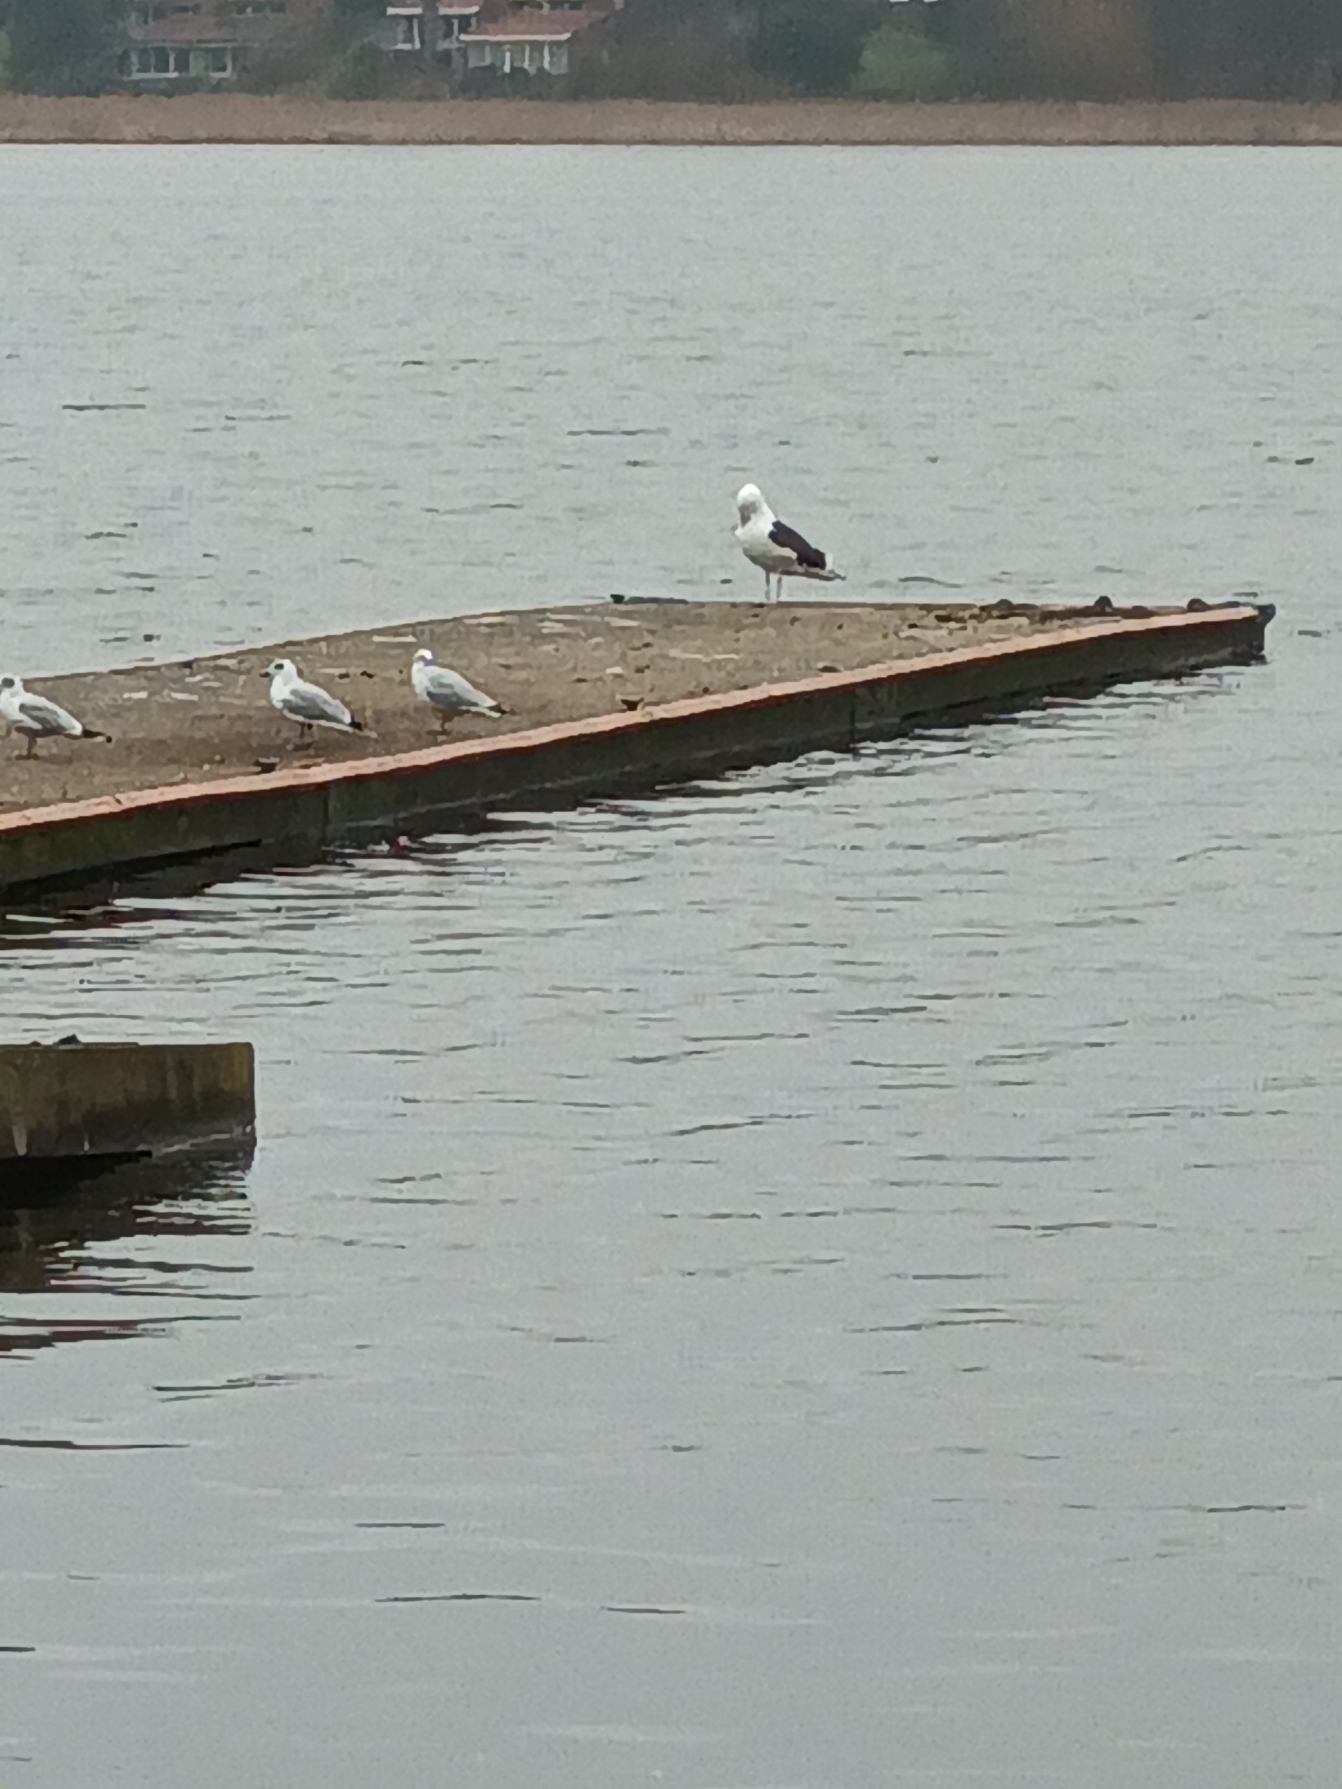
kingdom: Animalia
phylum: Chordata
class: Aves
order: Charadriiformes
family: Laridae
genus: Larus
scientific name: Larus marinus
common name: Svartbag
